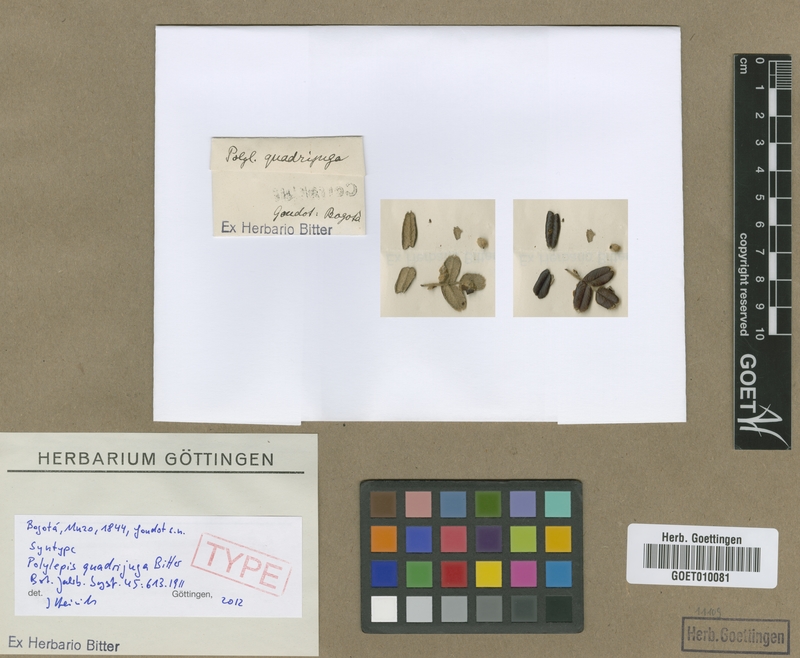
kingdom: Plantae
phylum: Tracheophyta
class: Magnoliopsida
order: Rosales
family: Rosaceae
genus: Polylepis
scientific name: Polylepis quadrijuga
